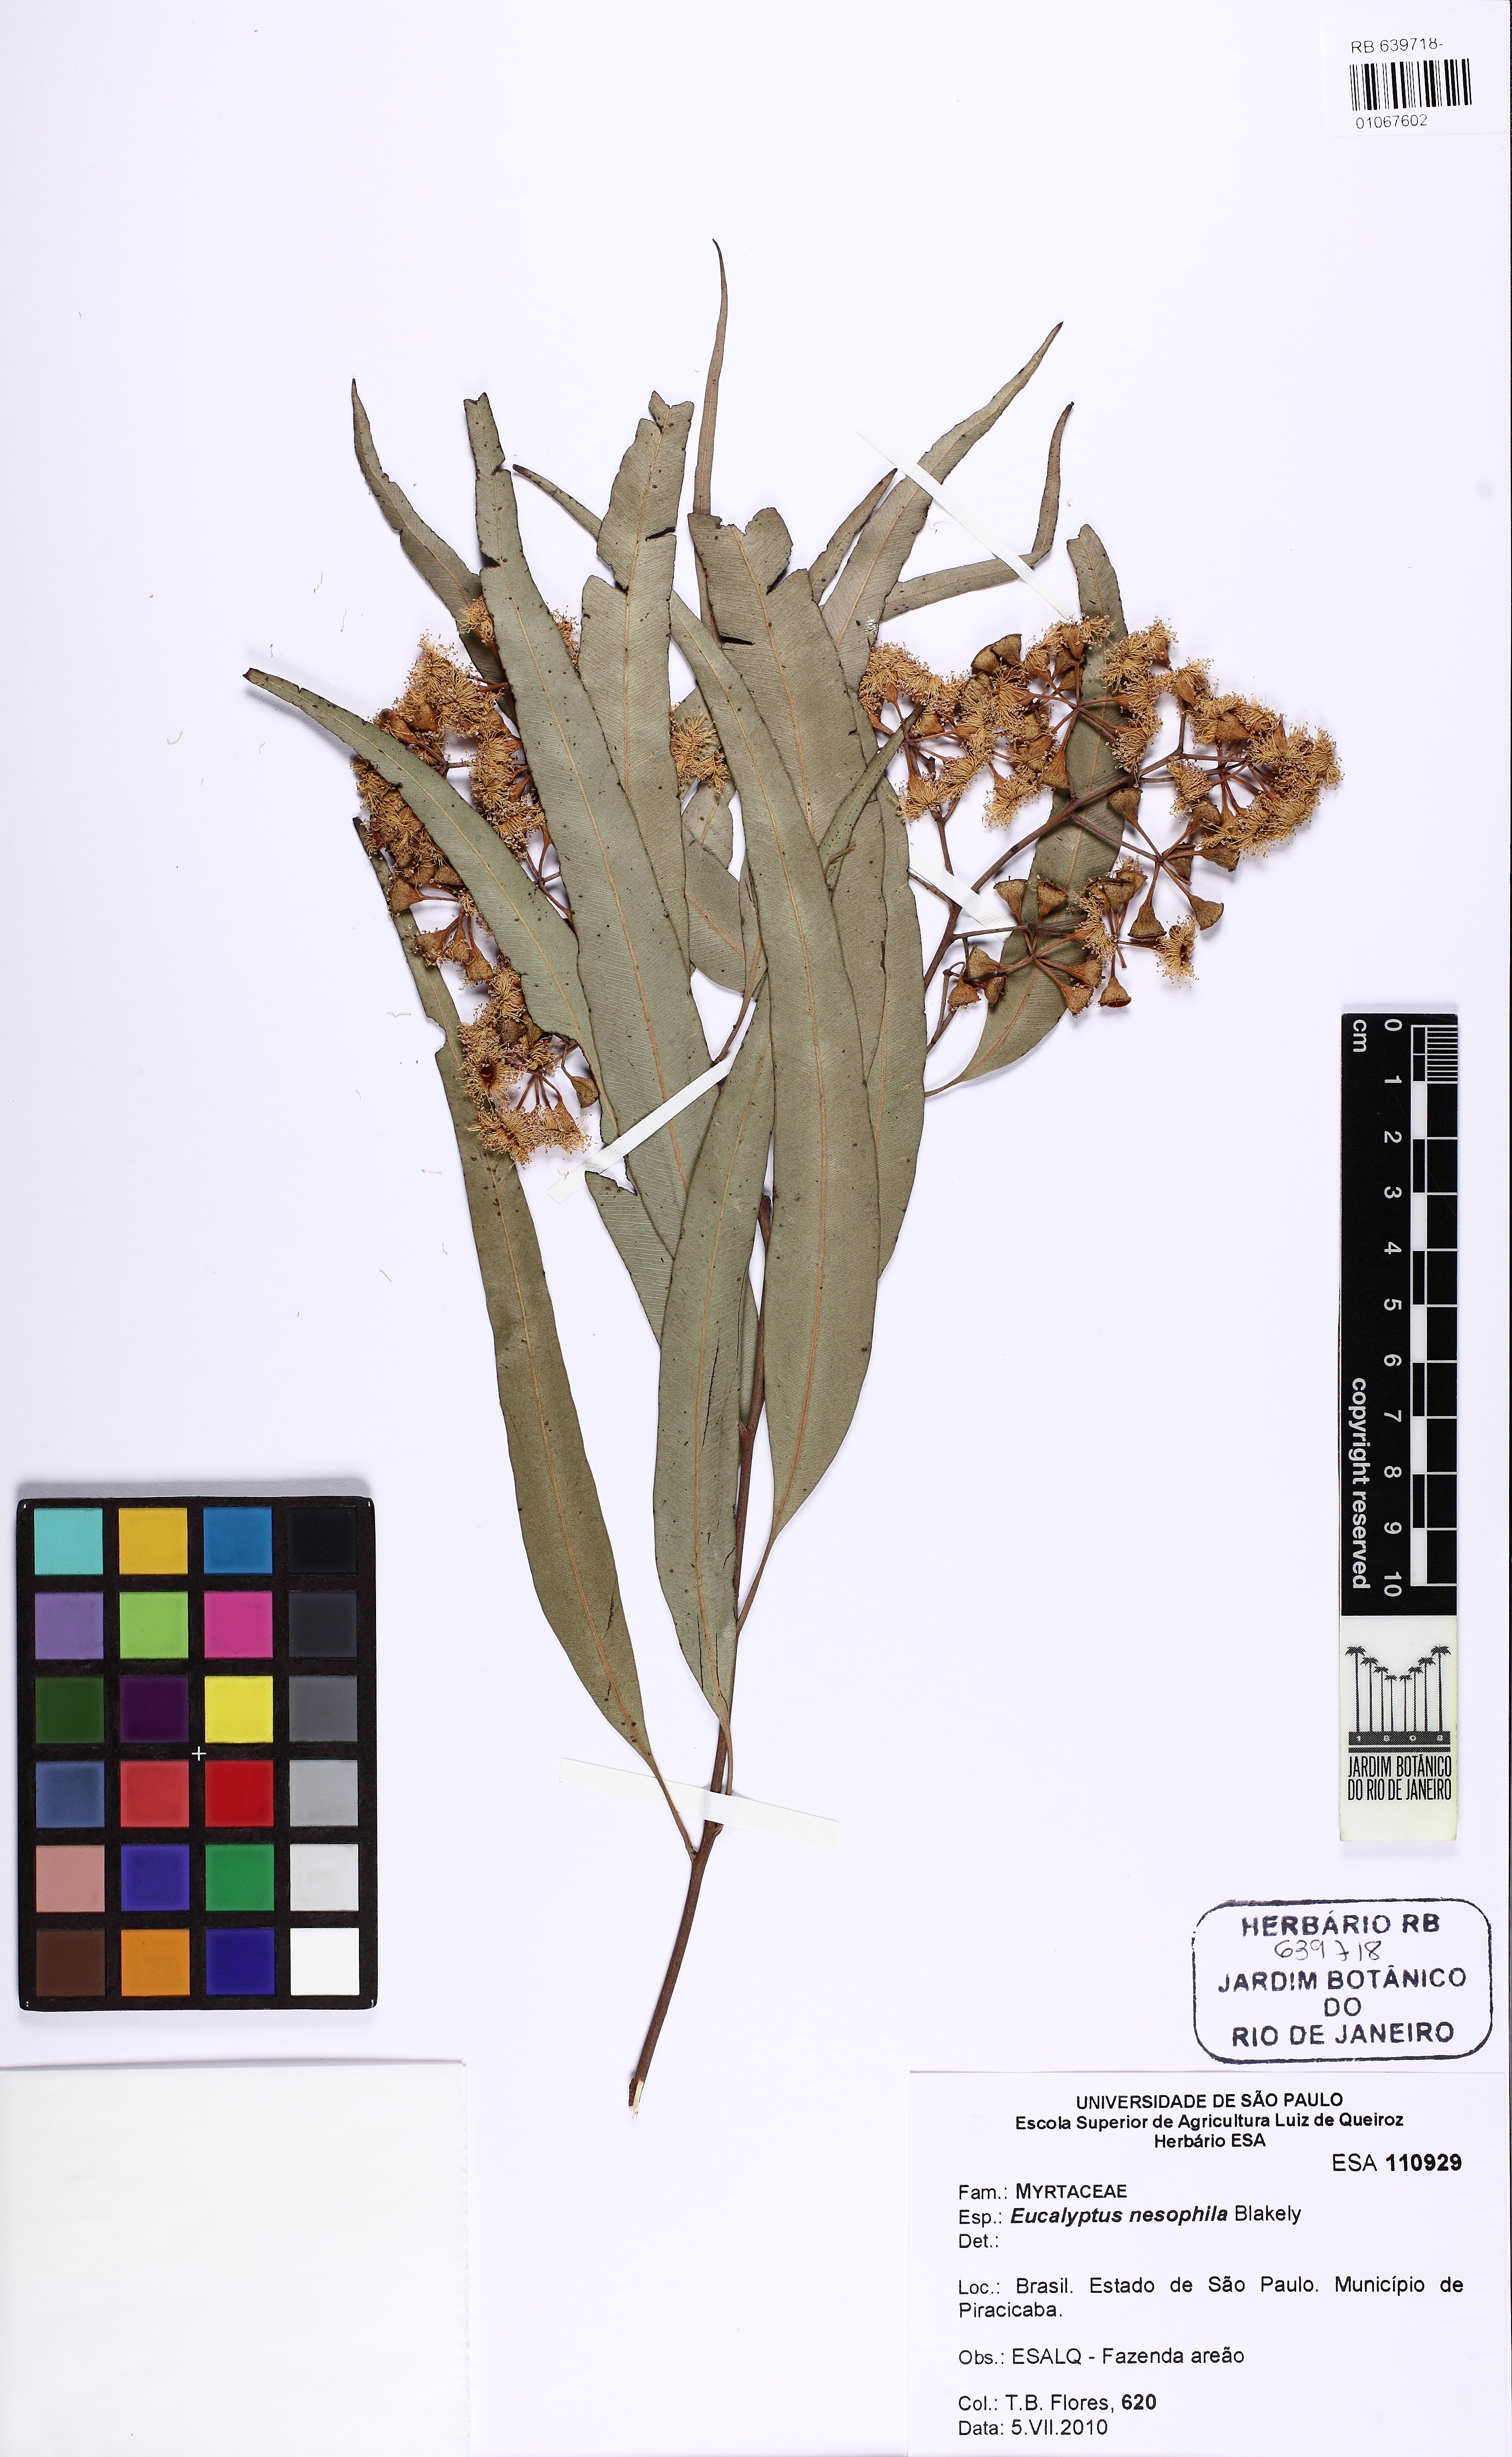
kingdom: Plantae
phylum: Tracheophyta
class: Magnoliopsida
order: Myrtales
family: Myrtaceae
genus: Corymbia
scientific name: Corymbia nesophila
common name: Melville-island-bloodwood
